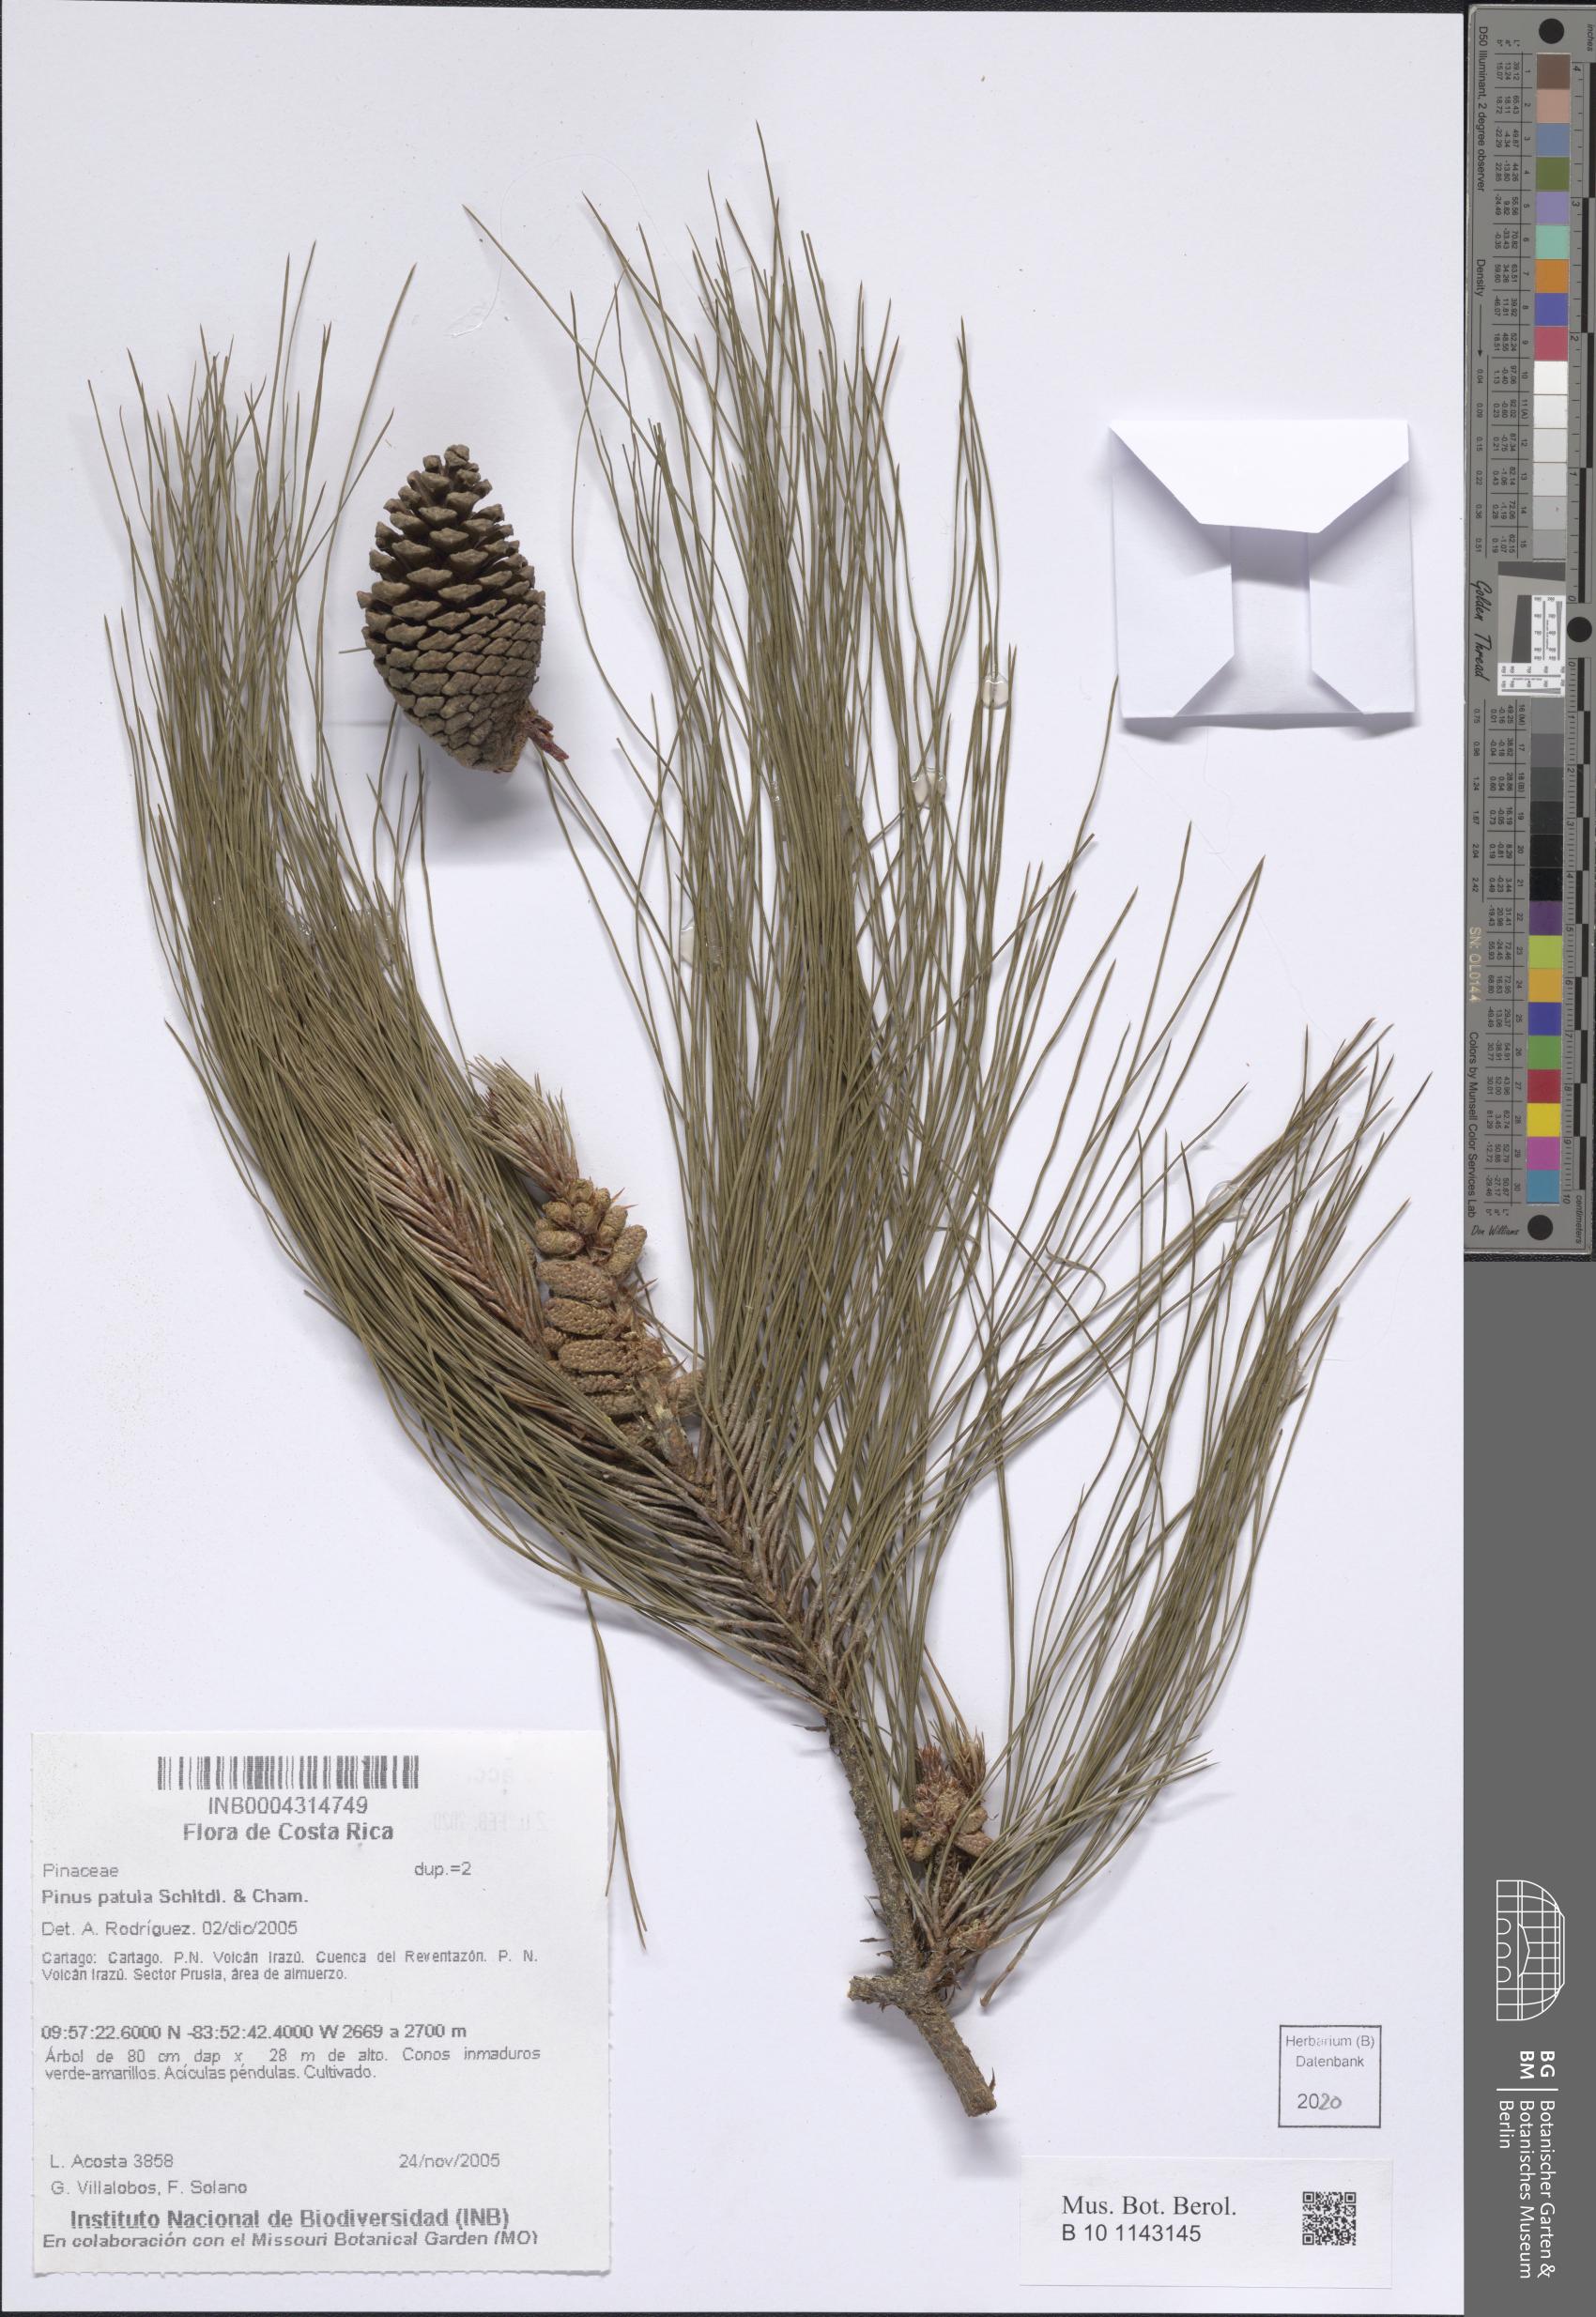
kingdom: Plantae
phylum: Tracheophyta
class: Pinopsida
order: Pinales
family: Pinaceae
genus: Pinus
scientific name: Pinus patula
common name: Mexican weeping pine
